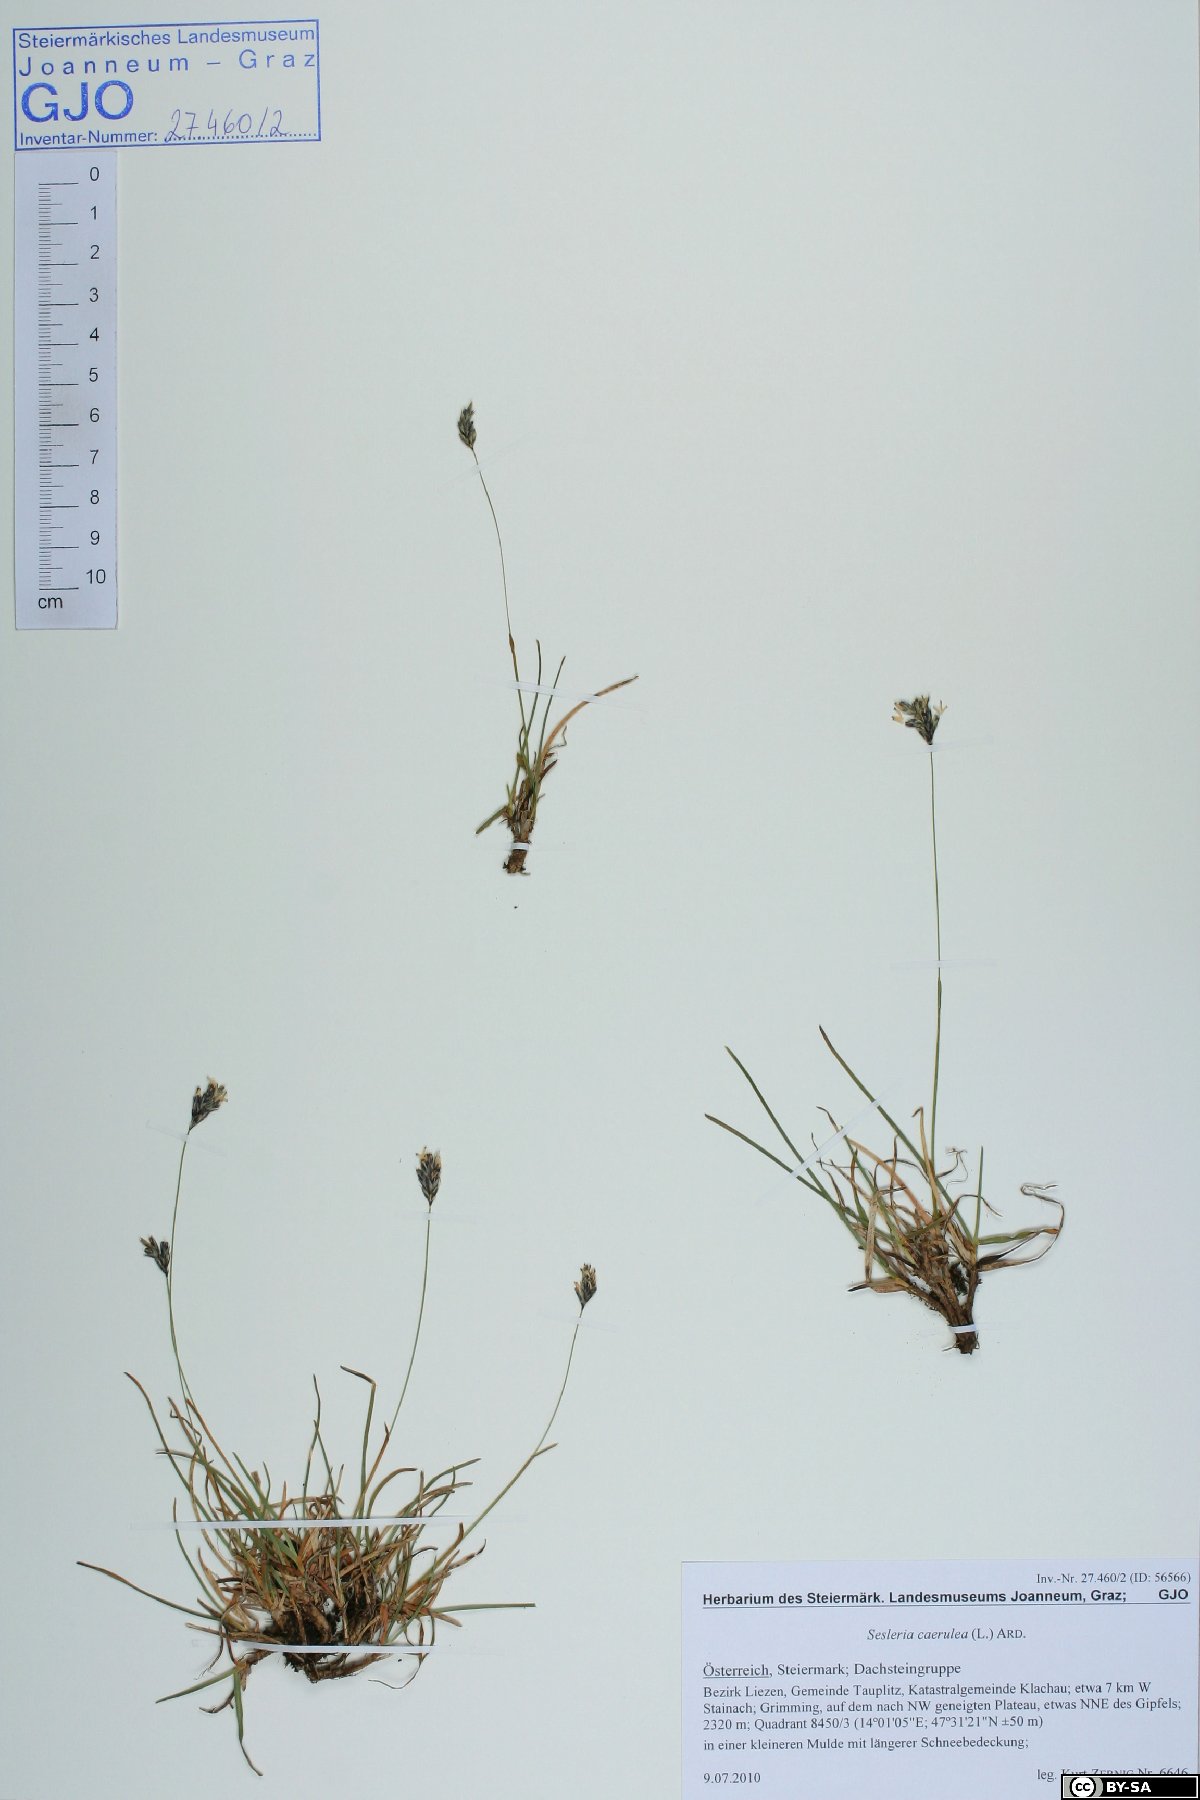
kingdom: Plantae
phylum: Tracheophyta
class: Liliopsida
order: Poales
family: Poaceae
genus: Sesleria
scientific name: Sesleria caerulea
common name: Blue moor-grass
